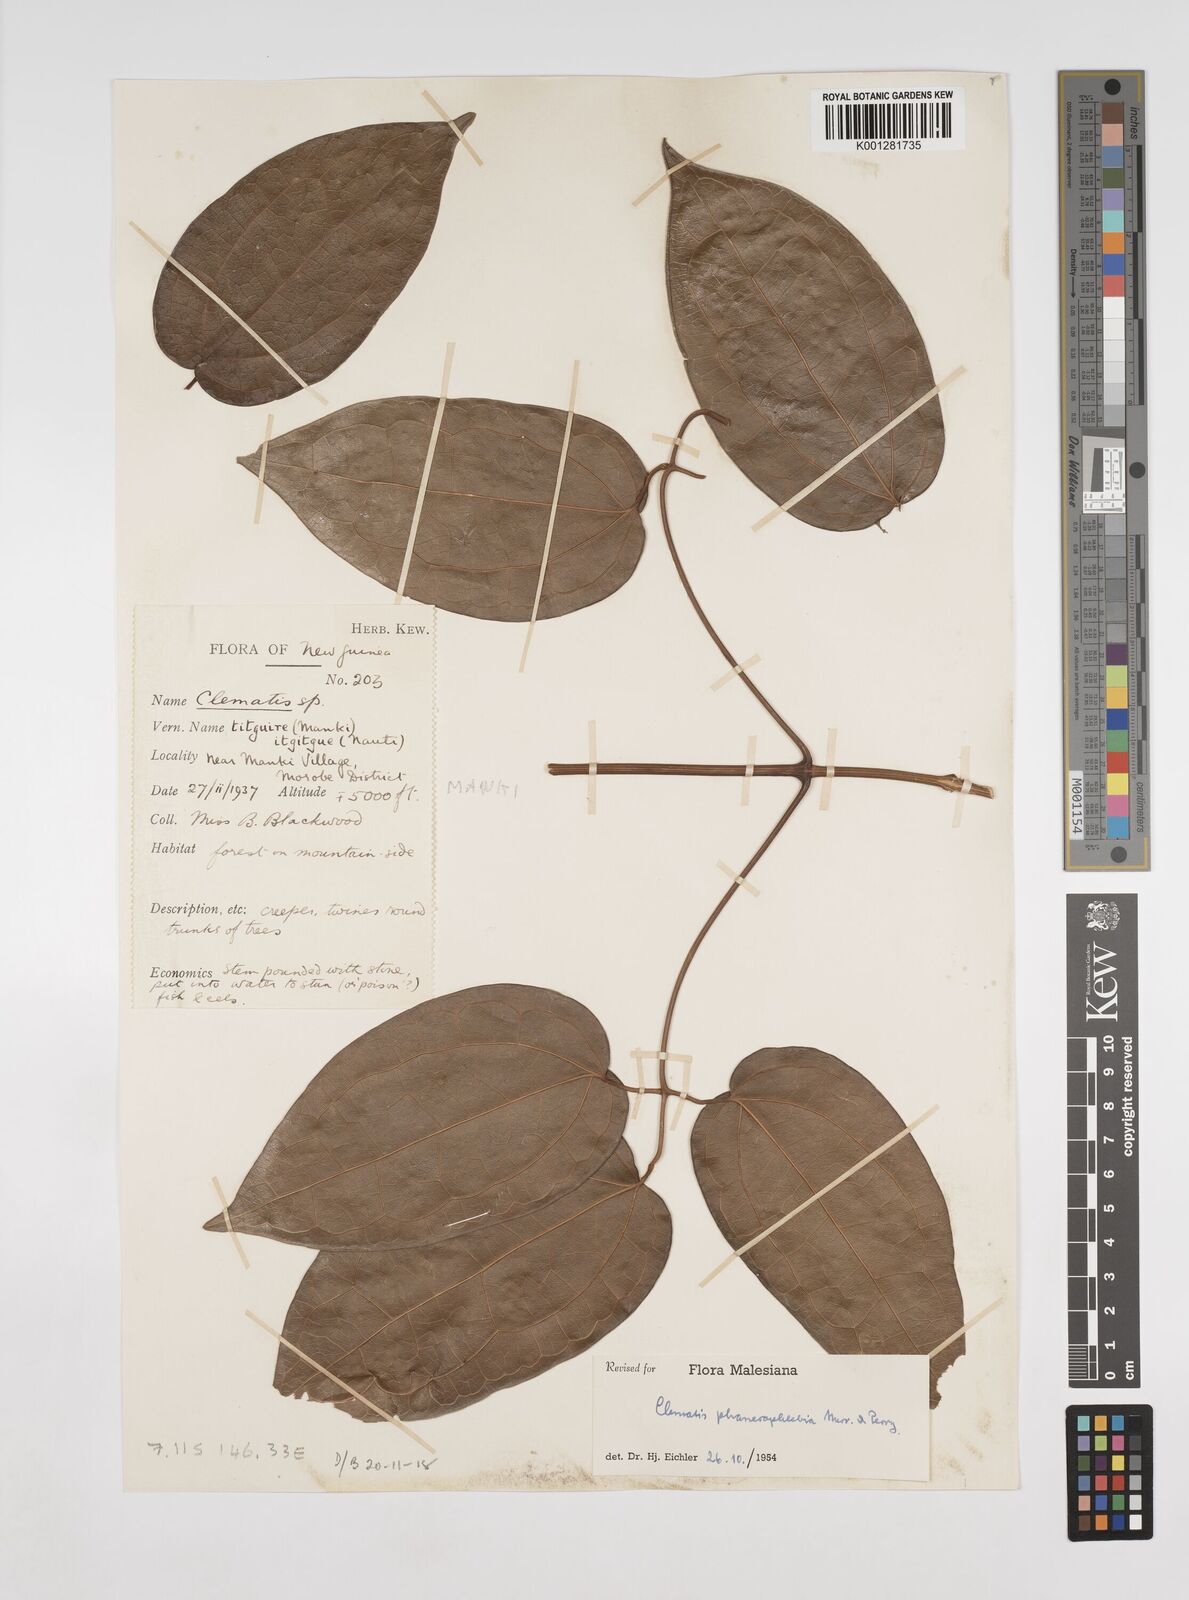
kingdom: Plantae
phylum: Tracheophyta
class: Magnoliopsida
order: Ranunculales
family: Ranunculaceae
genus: Clematis
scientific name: Clematis phanerophlebia
